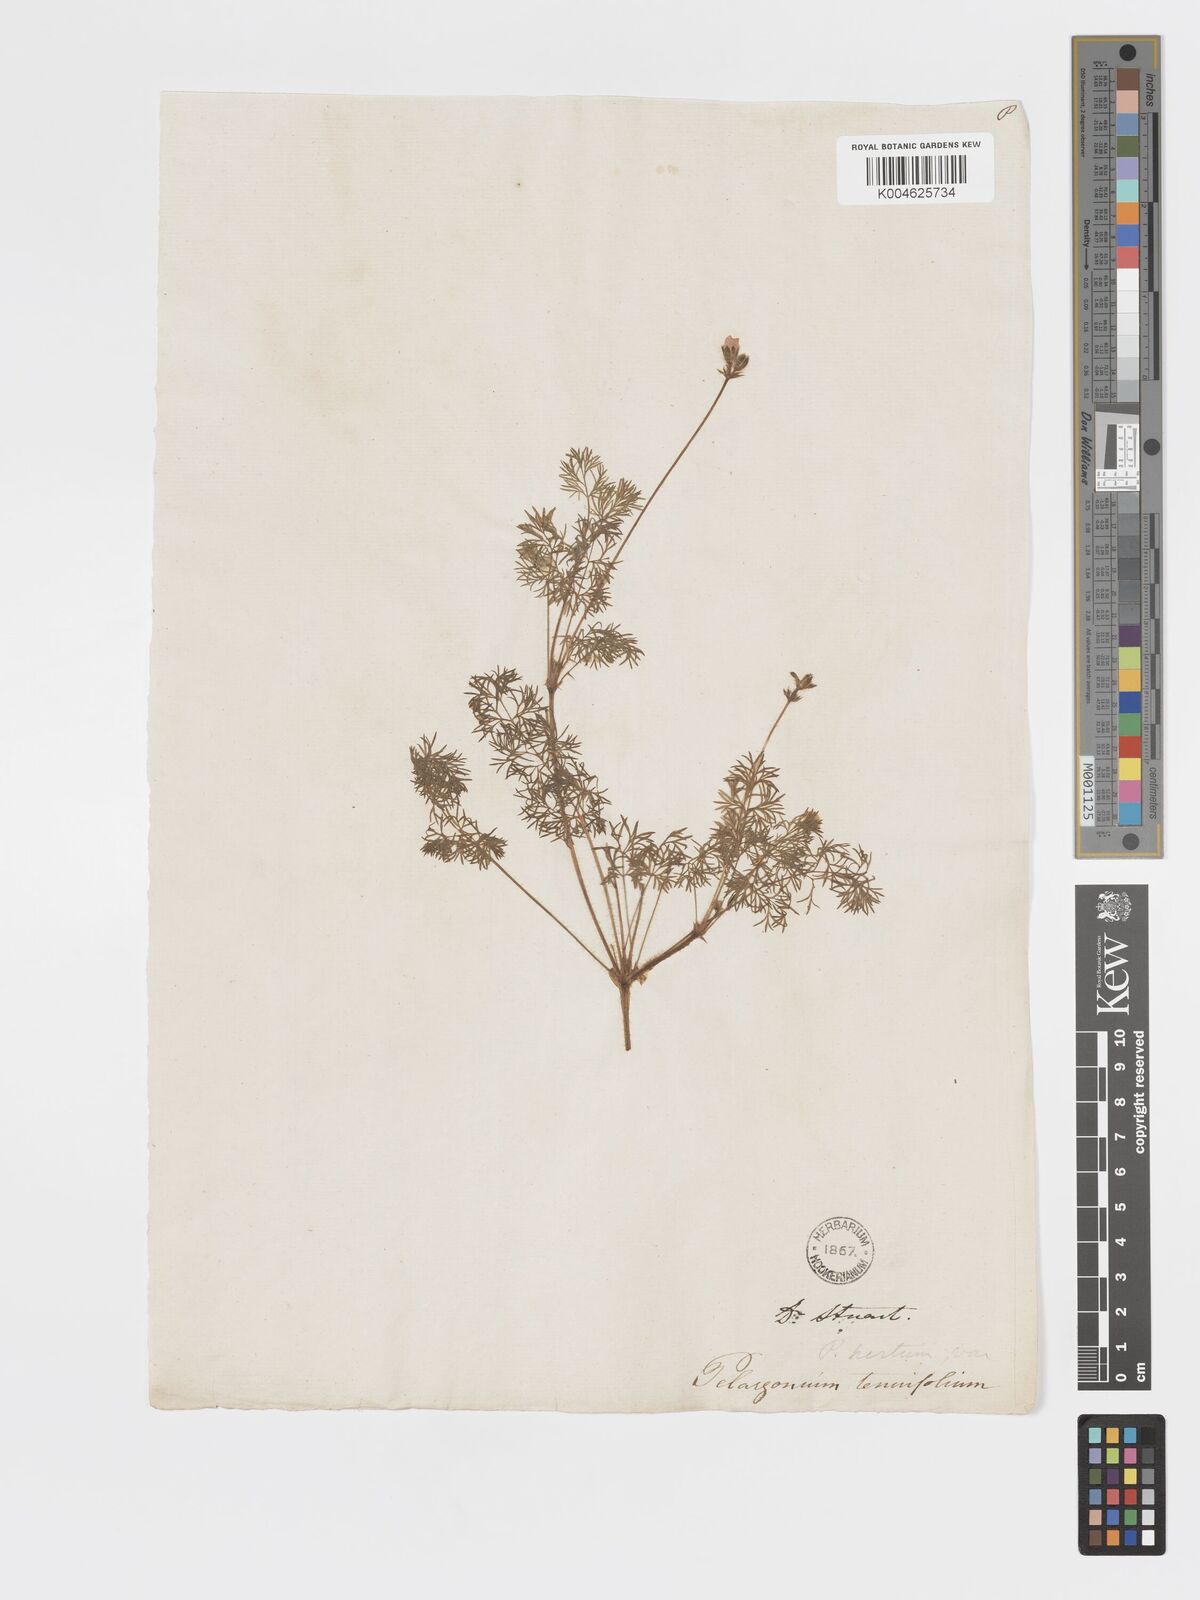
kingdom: Plantae
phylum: Tracheophyta
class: Magnoliopsida
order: Geraniales
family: Geraniaceae
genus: Pelargonium
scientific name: Pelargonium
